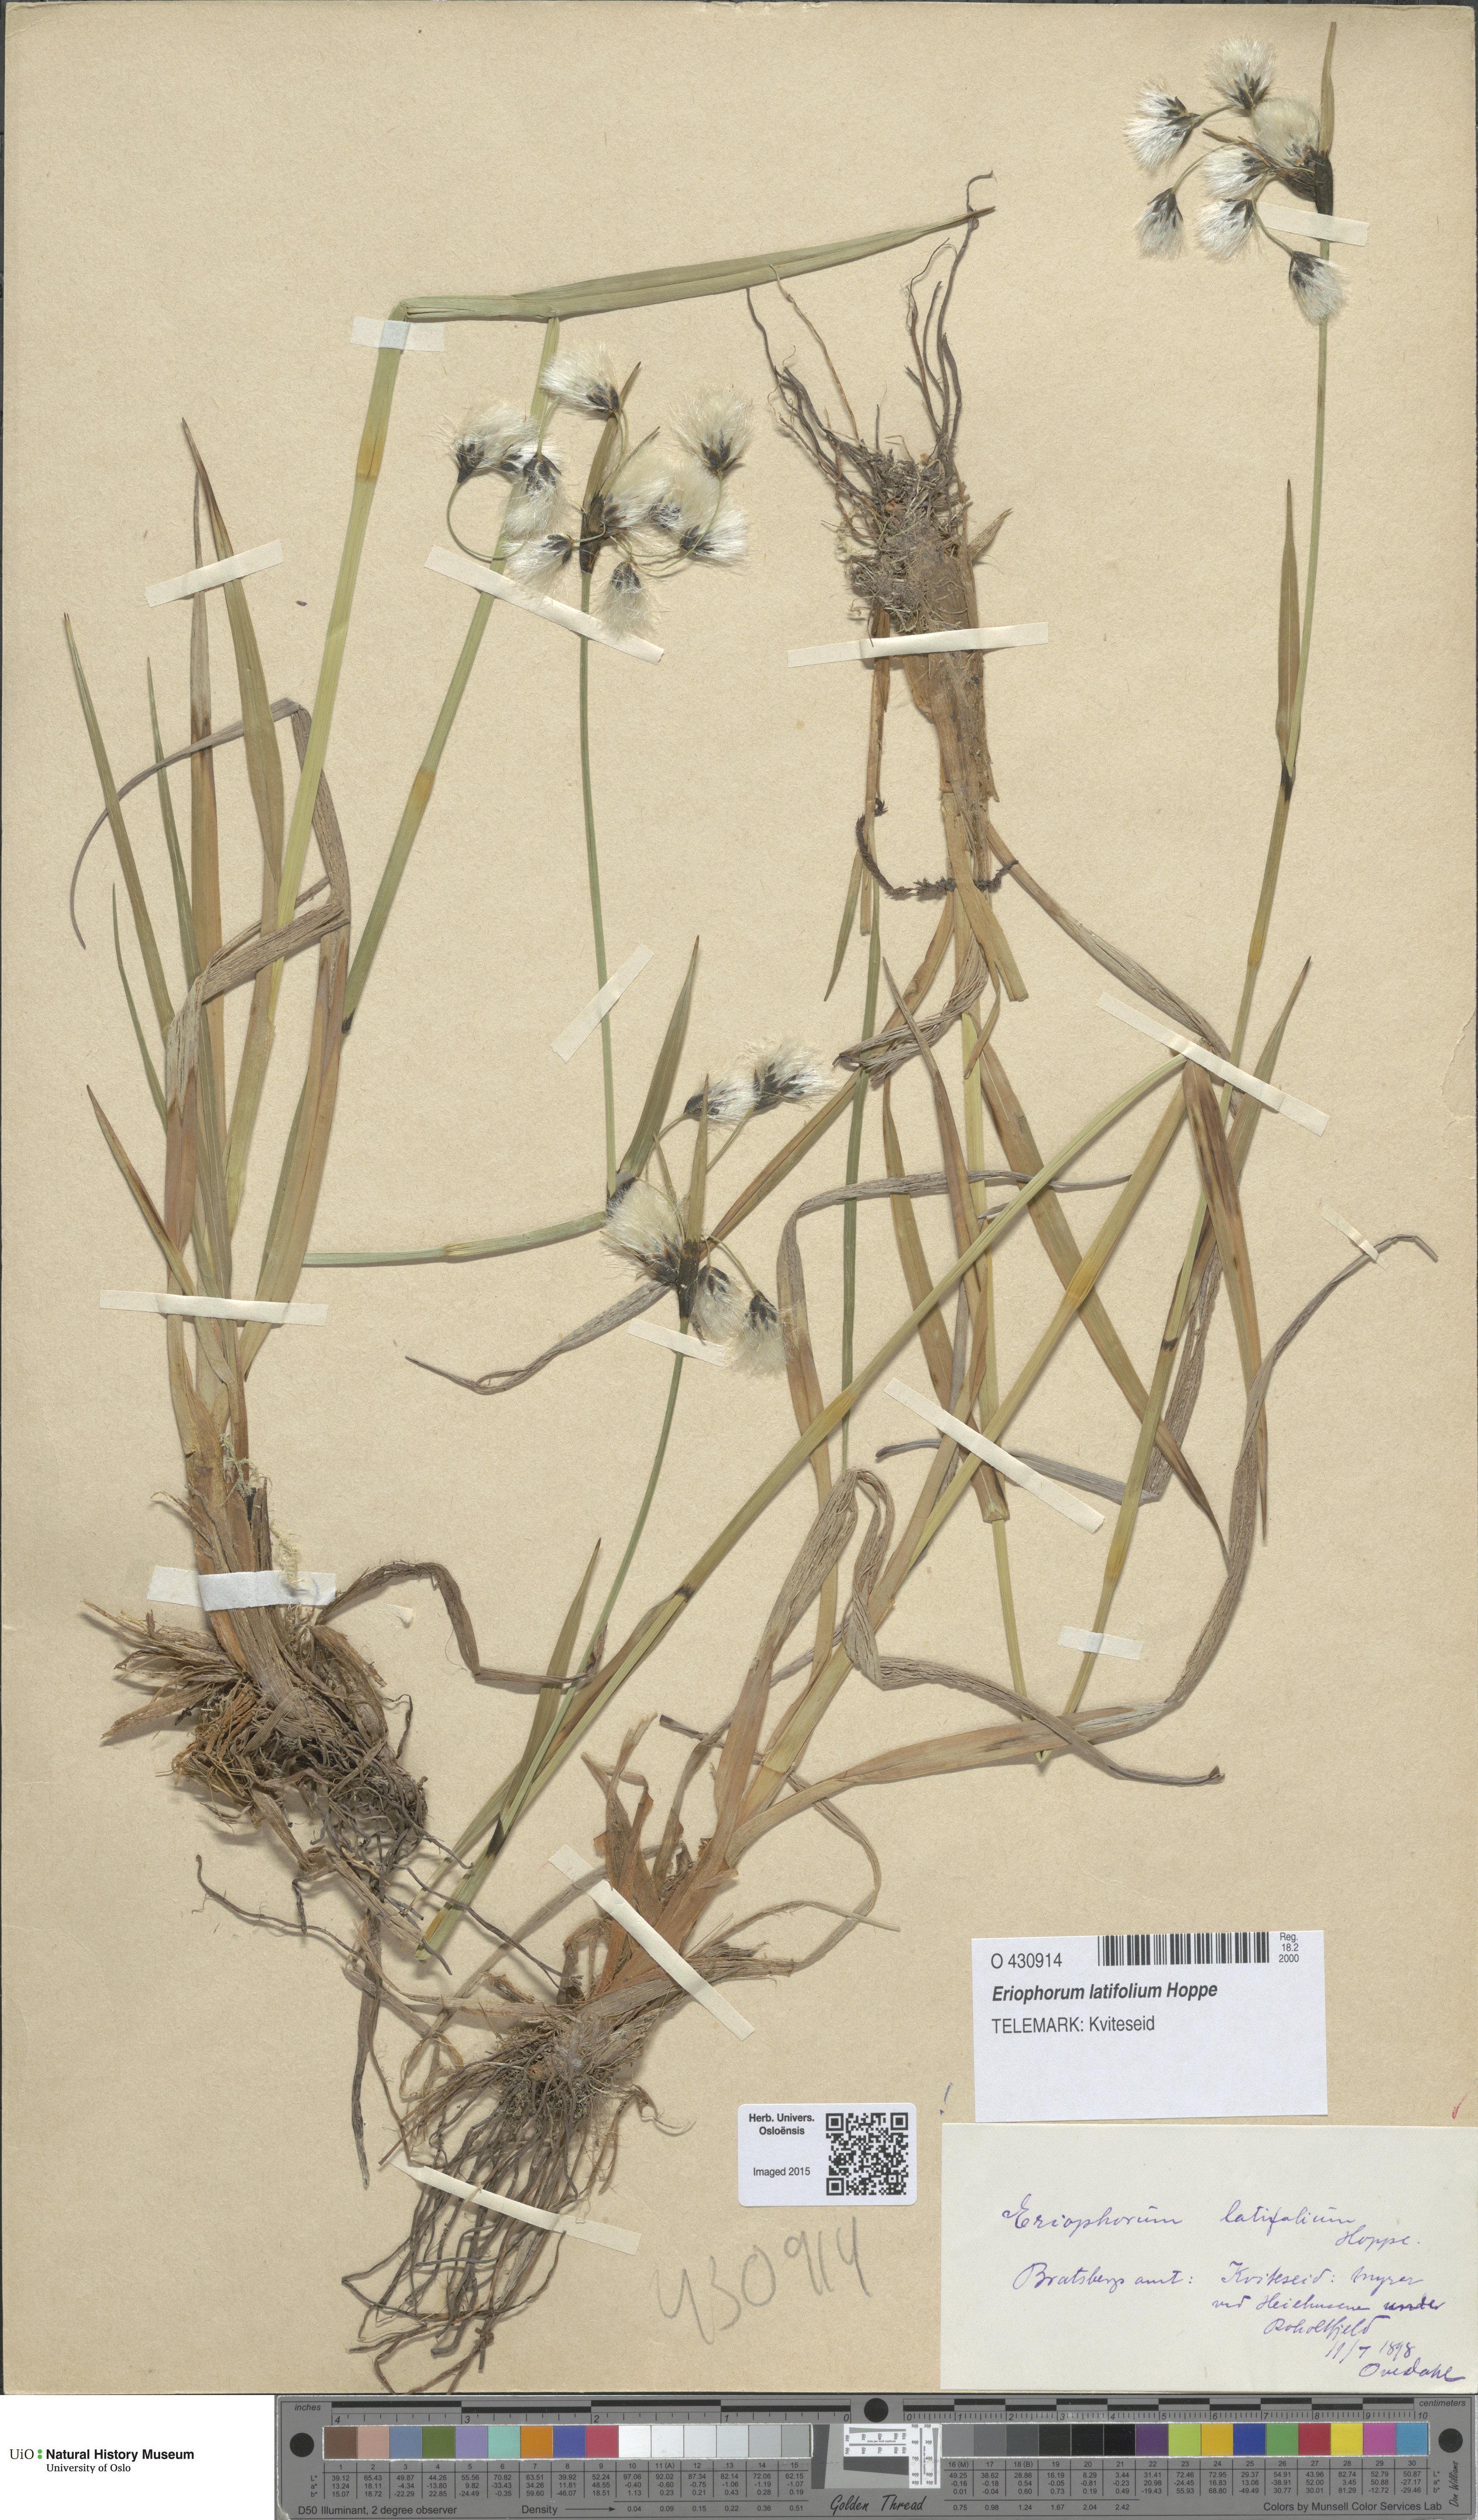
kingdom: Plantae
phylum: Tracheophyta
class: Liliopsida
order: Poales
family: Cyperaceae
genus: Eriophorum
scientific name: Eriophorum latifolium
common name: Broad-leaved cottongrass
